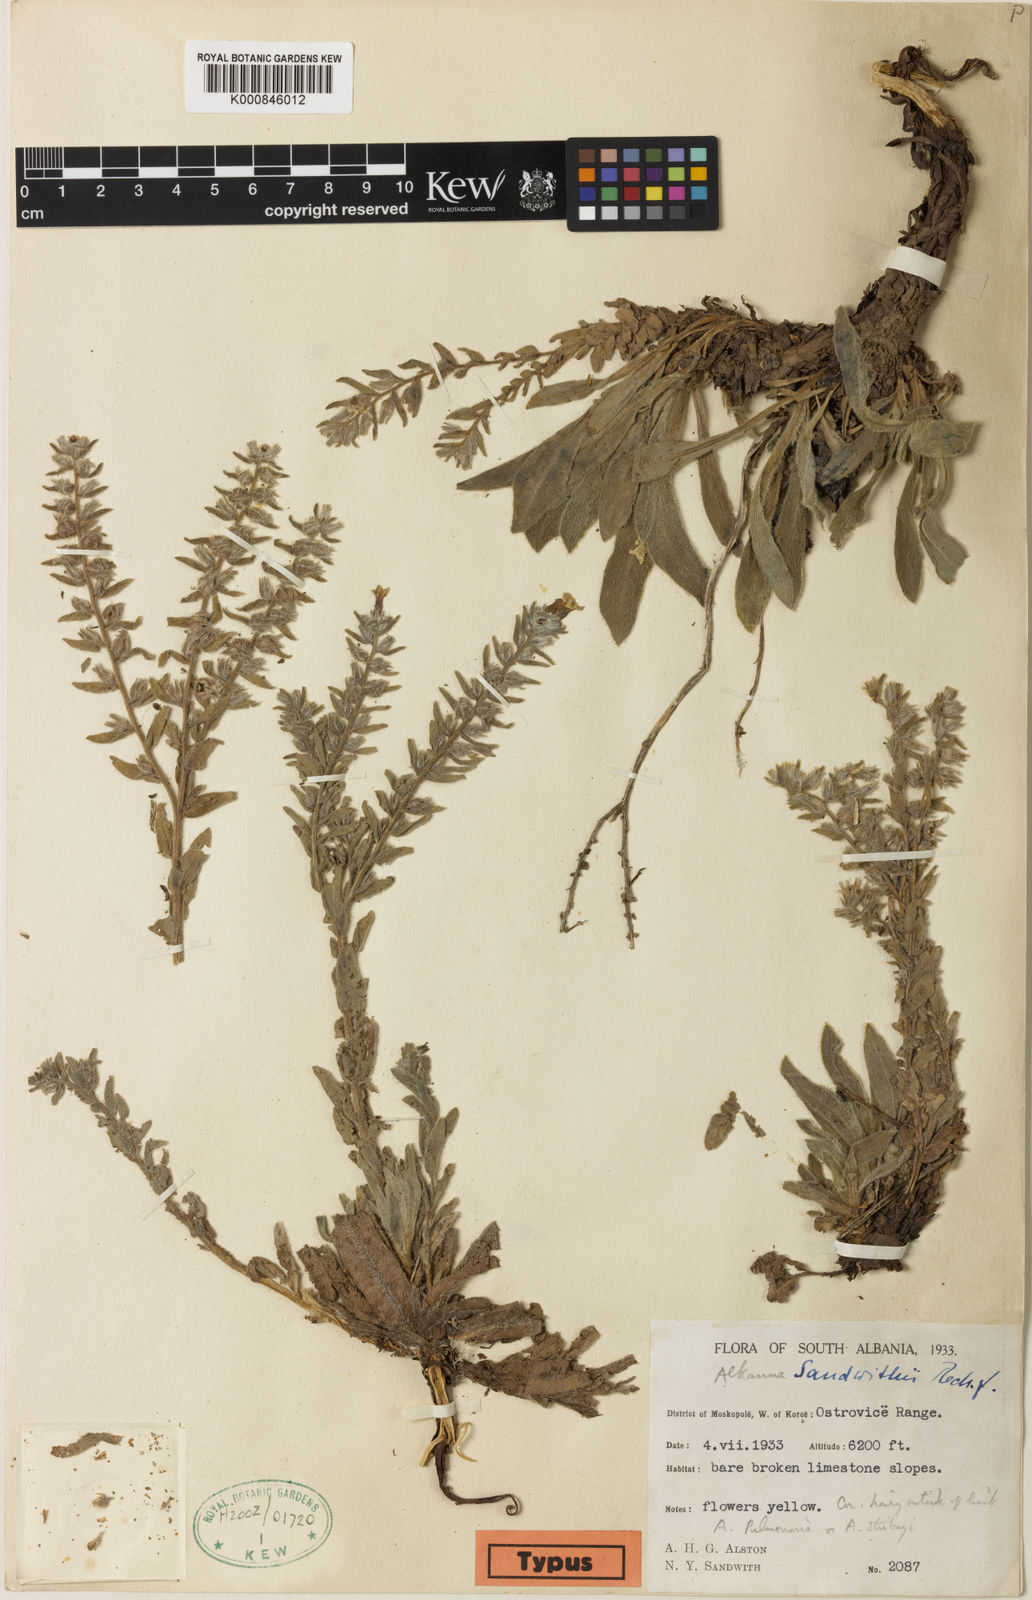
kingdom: Plantae
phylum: Tracheophyta
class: Magnoliopsida
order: Boraginales
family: Boraginaceae
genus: Alkanna
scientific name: Alkanna sandwithii
